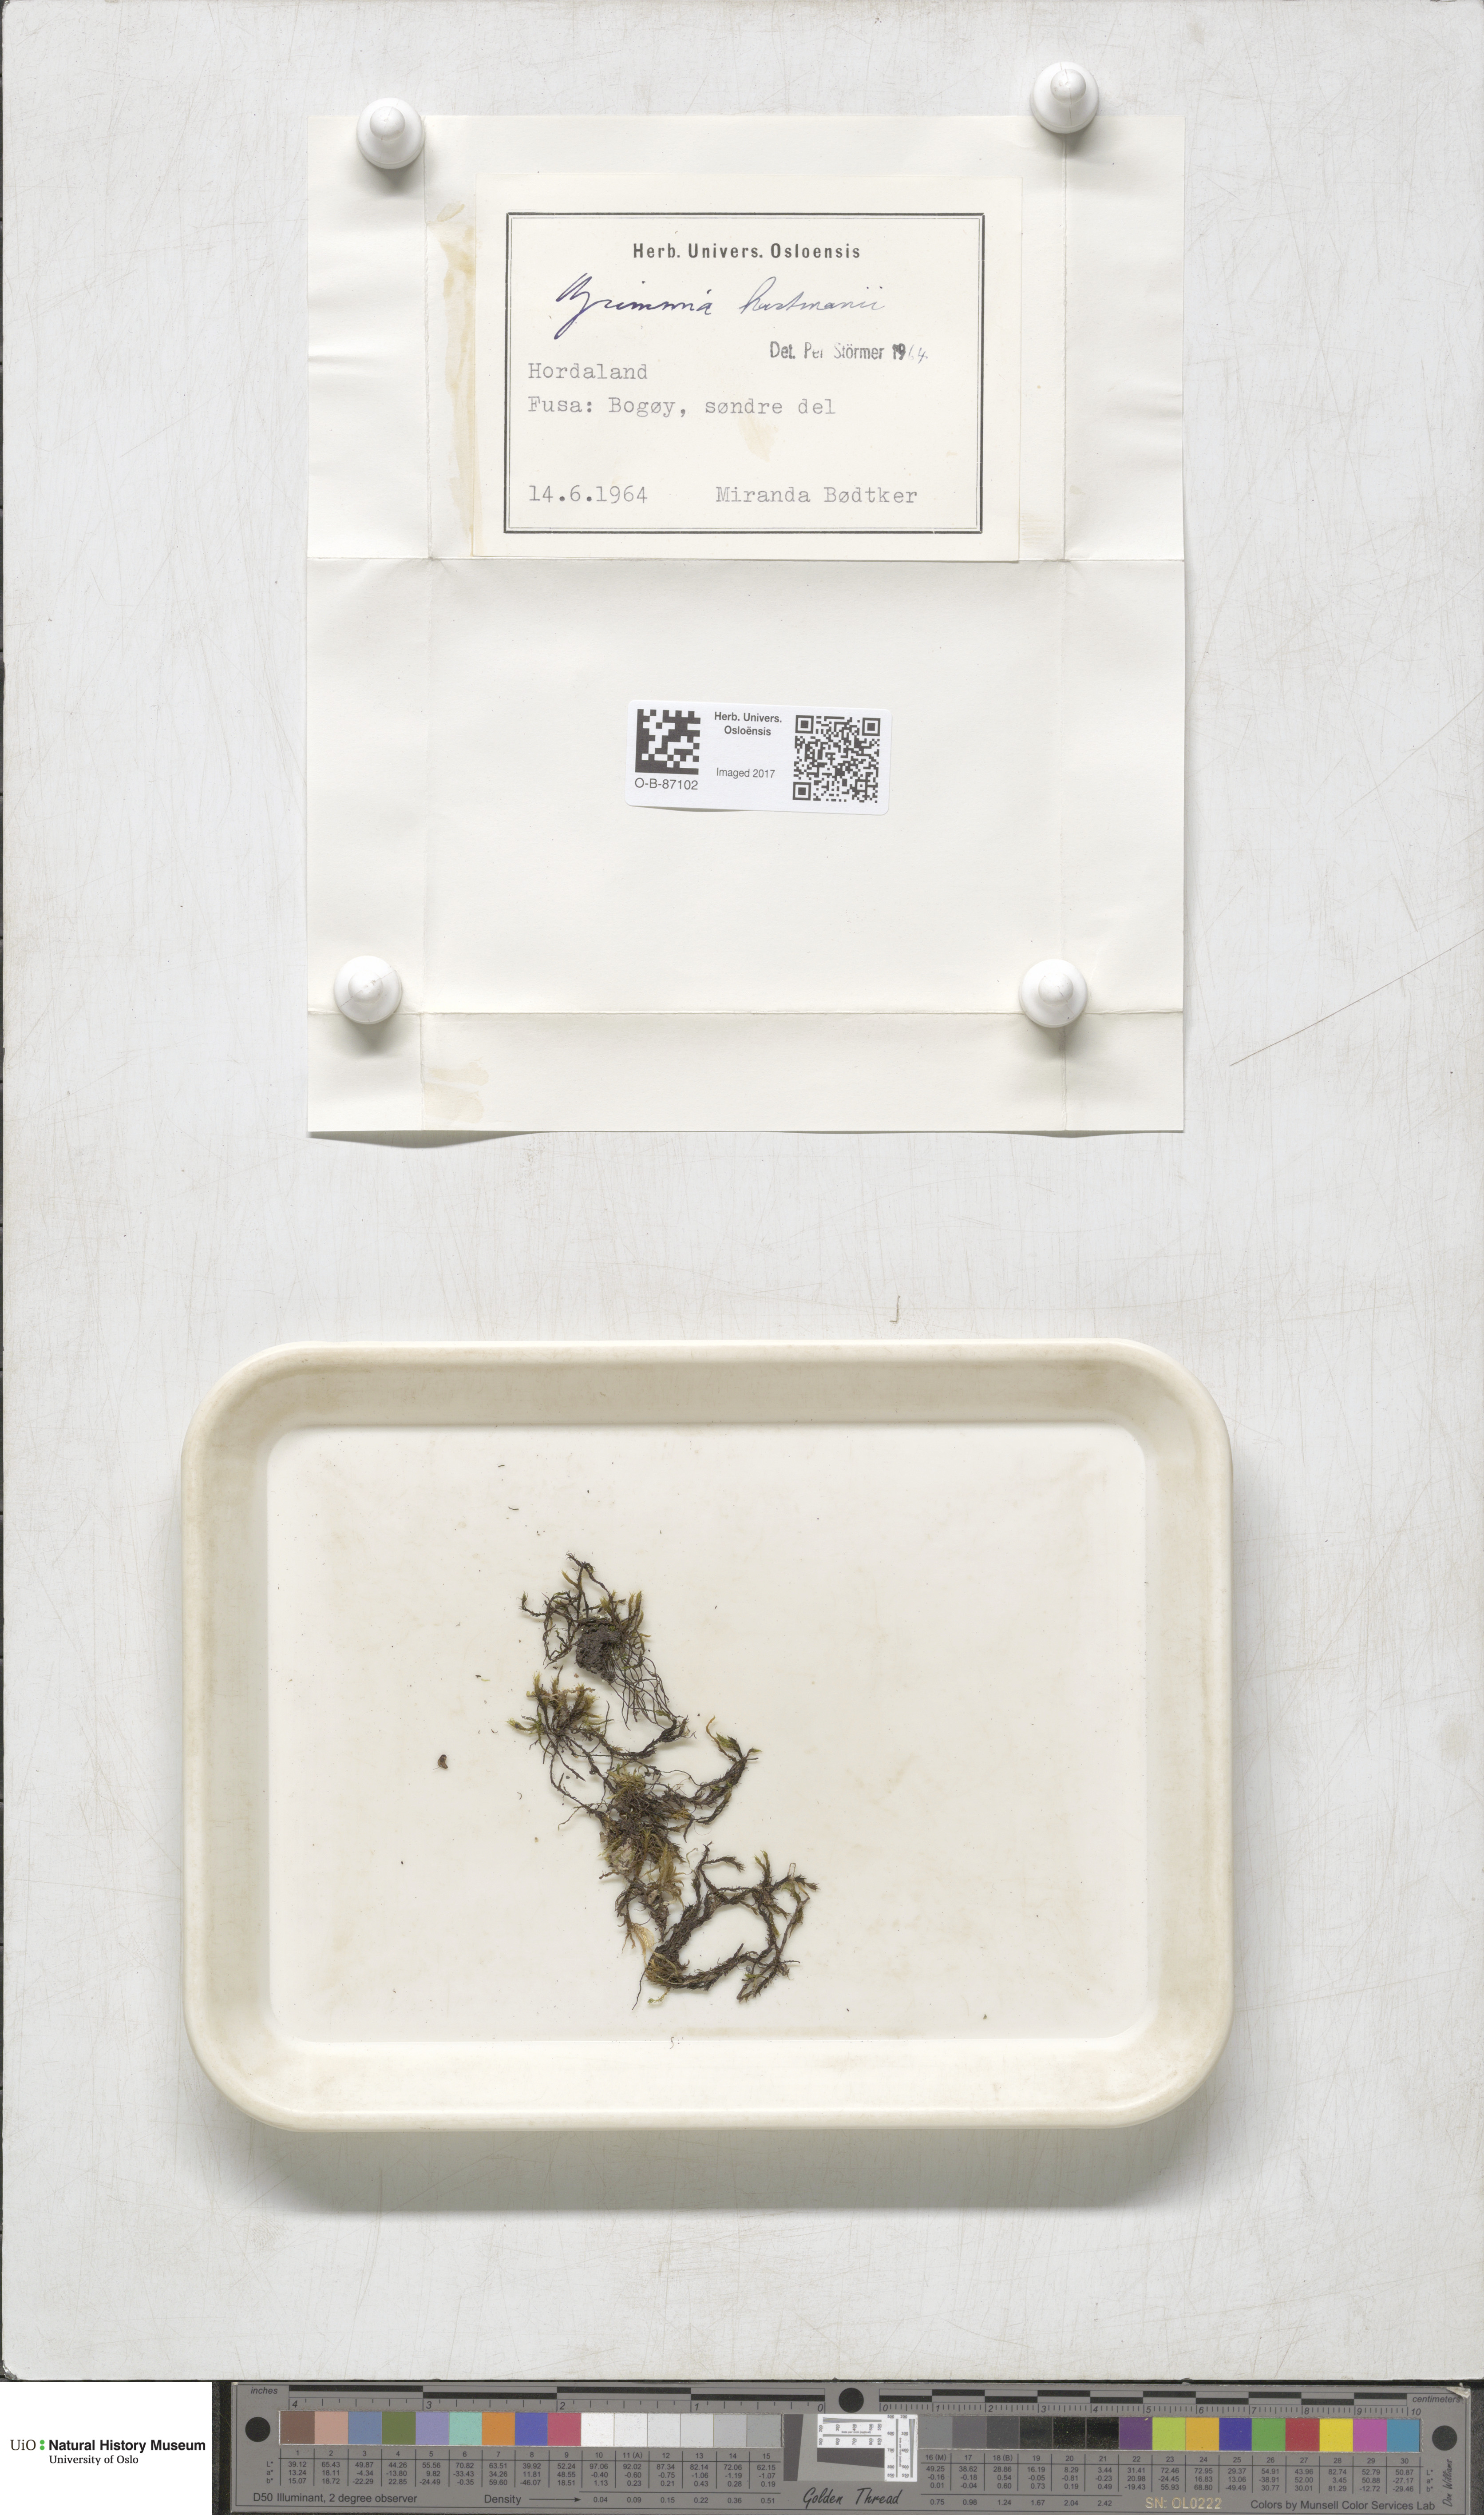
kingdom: Plantae
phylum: Bryophyta
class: Bryopsida
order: Grimmiales
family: Grimmiaceae
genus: Grimmia
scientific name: Grimmia hartmanii
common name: Hartman's grimmia
